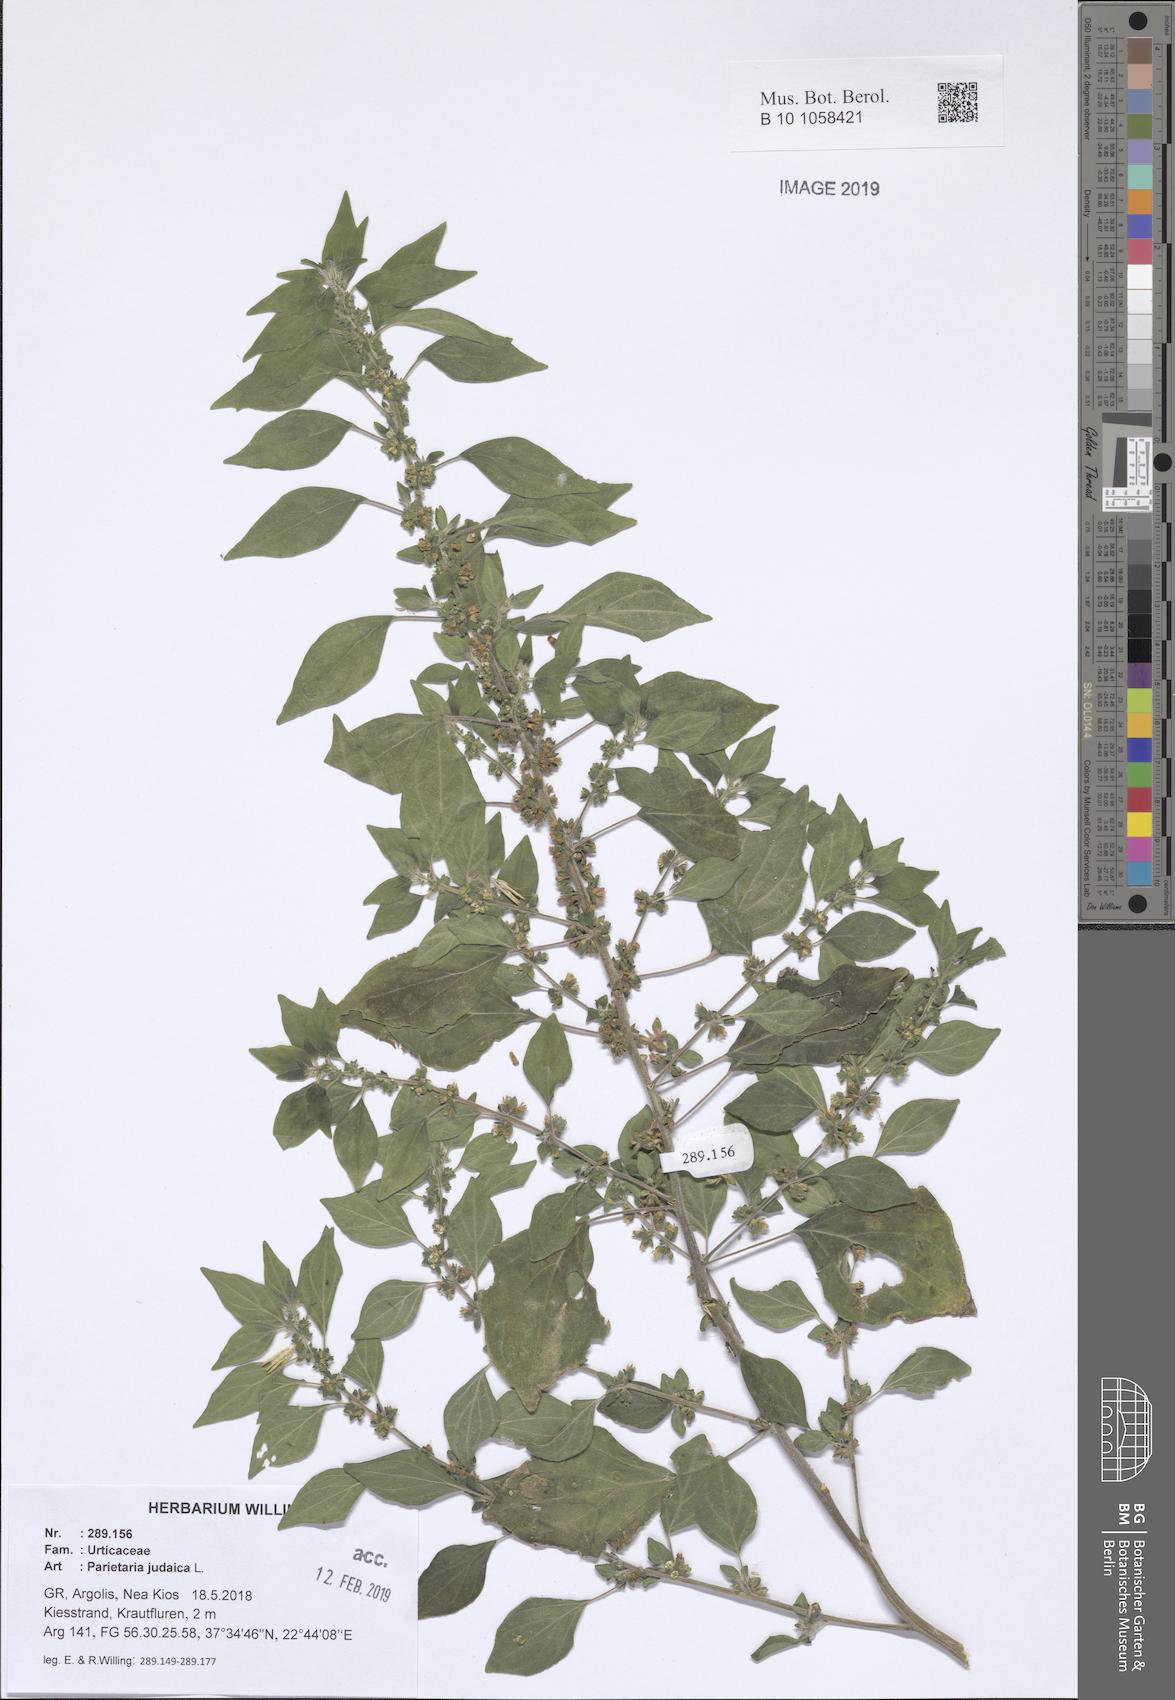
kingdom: Plantae
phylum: Tracheophyta
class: Magnoliopsida
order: Rosales
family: Urticaceae
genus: Parietaria
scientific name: Parietaria judaica
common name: Pellitory-of-the-wall
